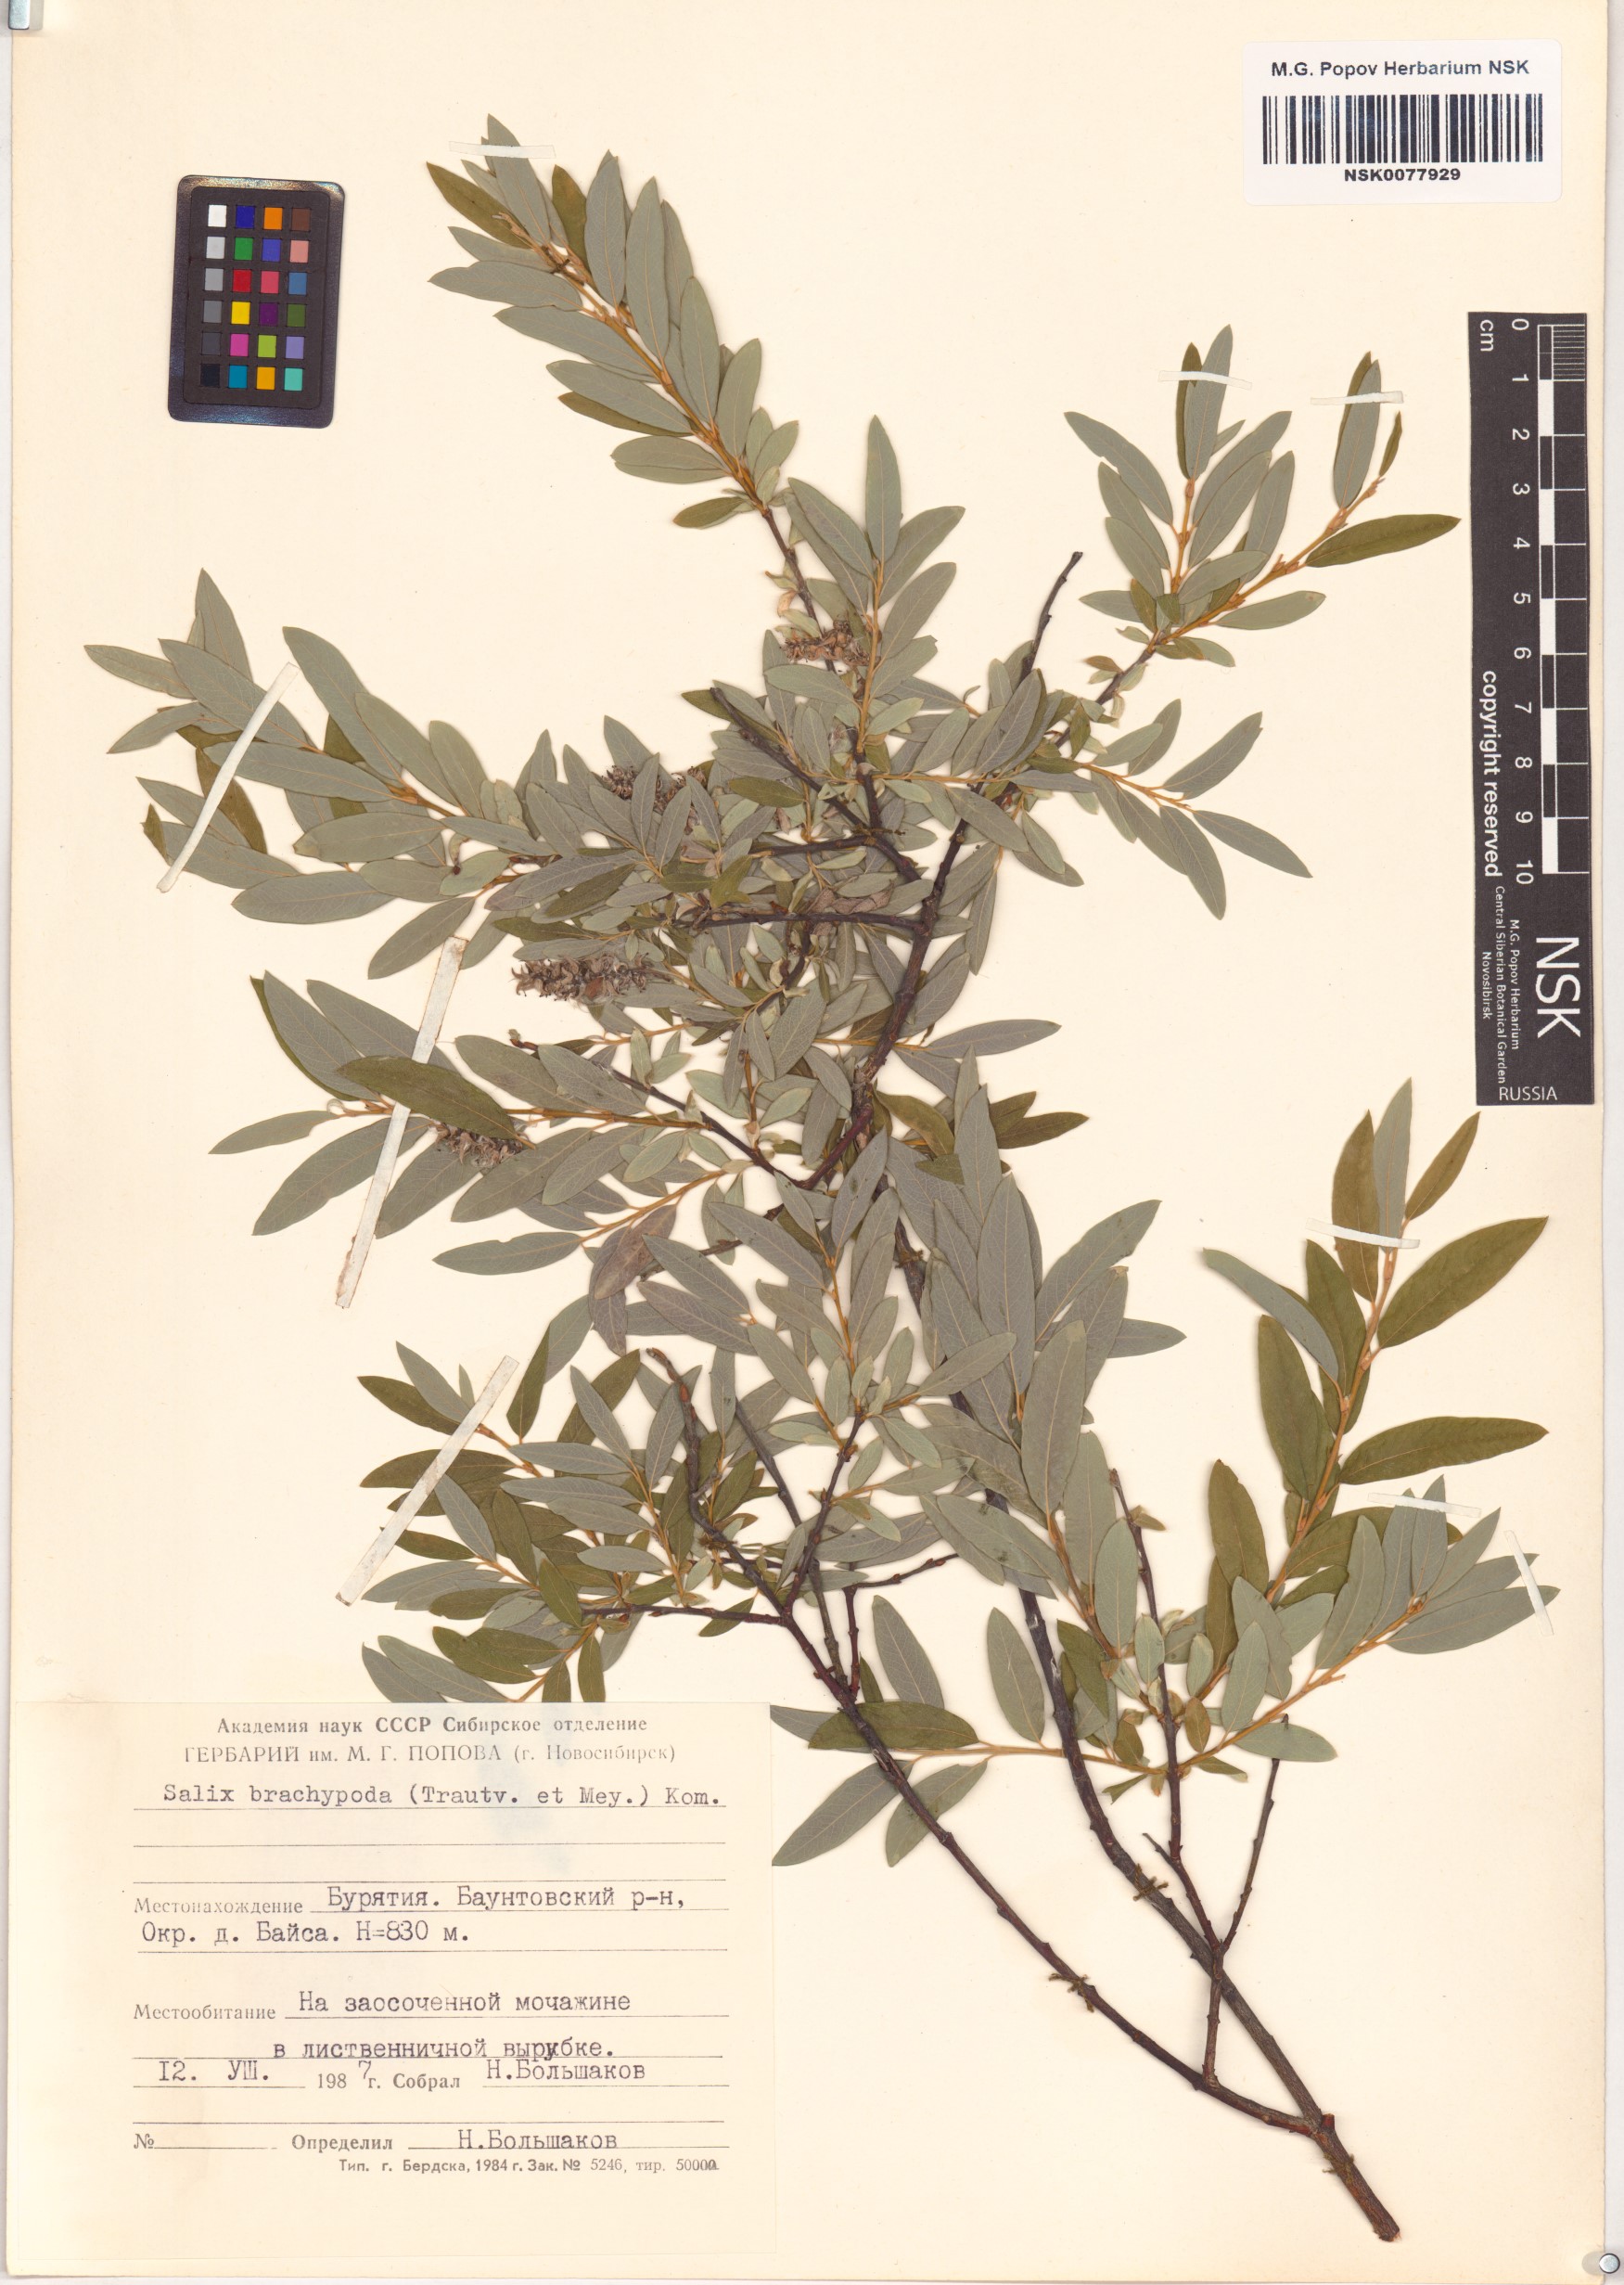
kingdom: Plantae
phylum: Tracheophyta
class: Magnoliopsida
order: Malpighiales
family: Salicaceae
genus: Salix
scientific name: Salix brachypoda
